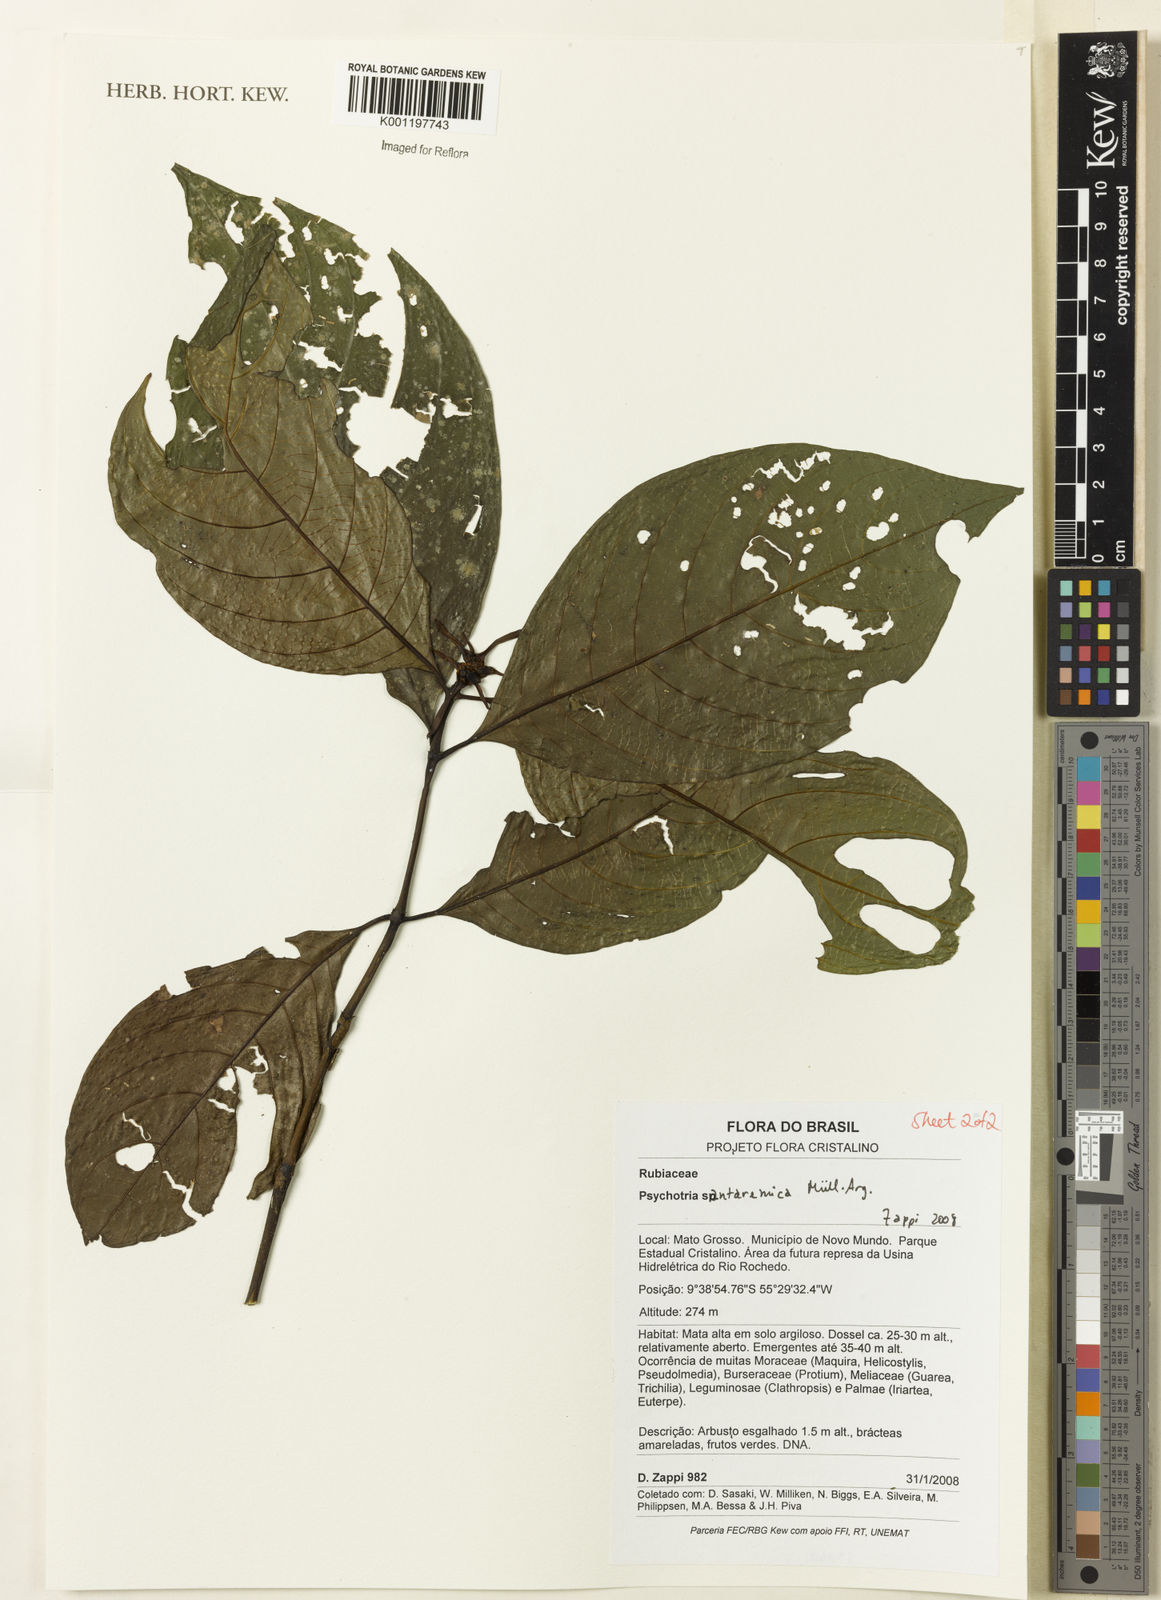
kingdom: Plantae
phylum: Tracheophyta
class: Magnoliopsida
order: Gentianales
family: Rubiaceae
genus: Psychotria
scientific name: Psychotria
